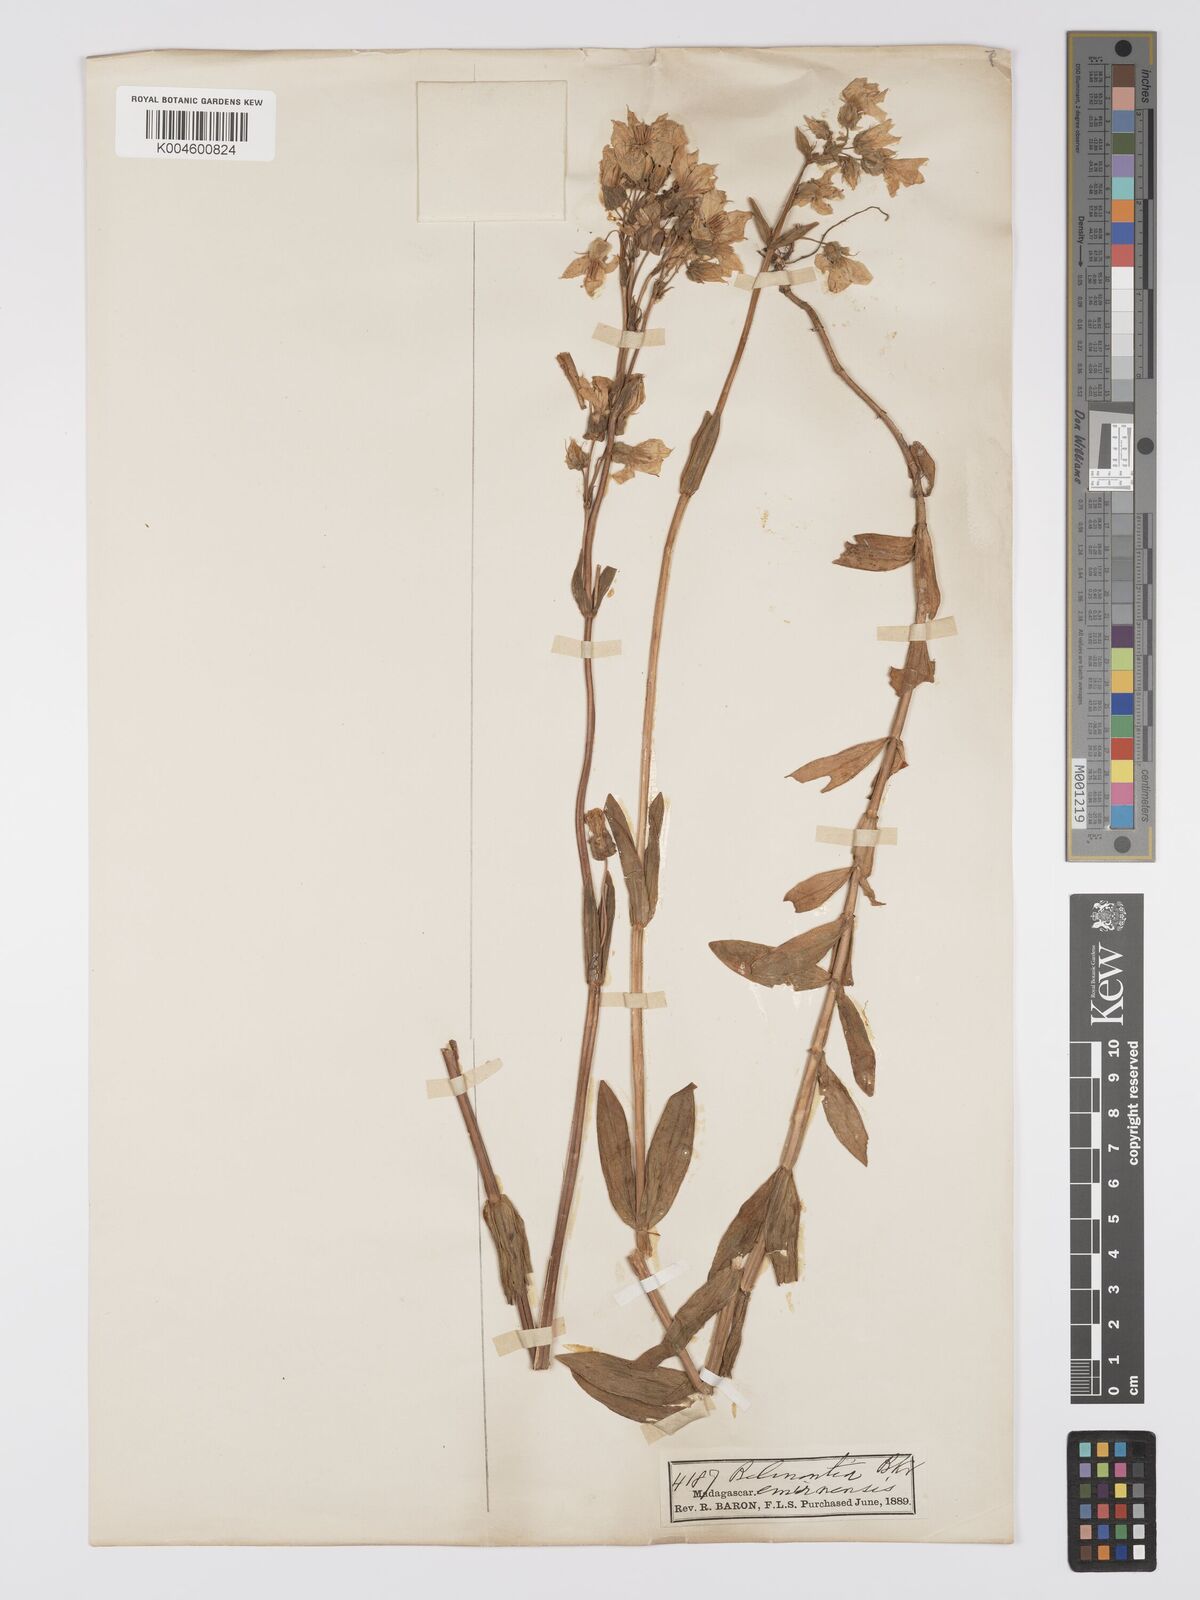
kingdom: Plantae
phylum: Tracheophyta
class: Magnoliopsida
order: Gentianales
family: Gentianaceae
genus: Exacum
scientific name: Exacum emirnense
